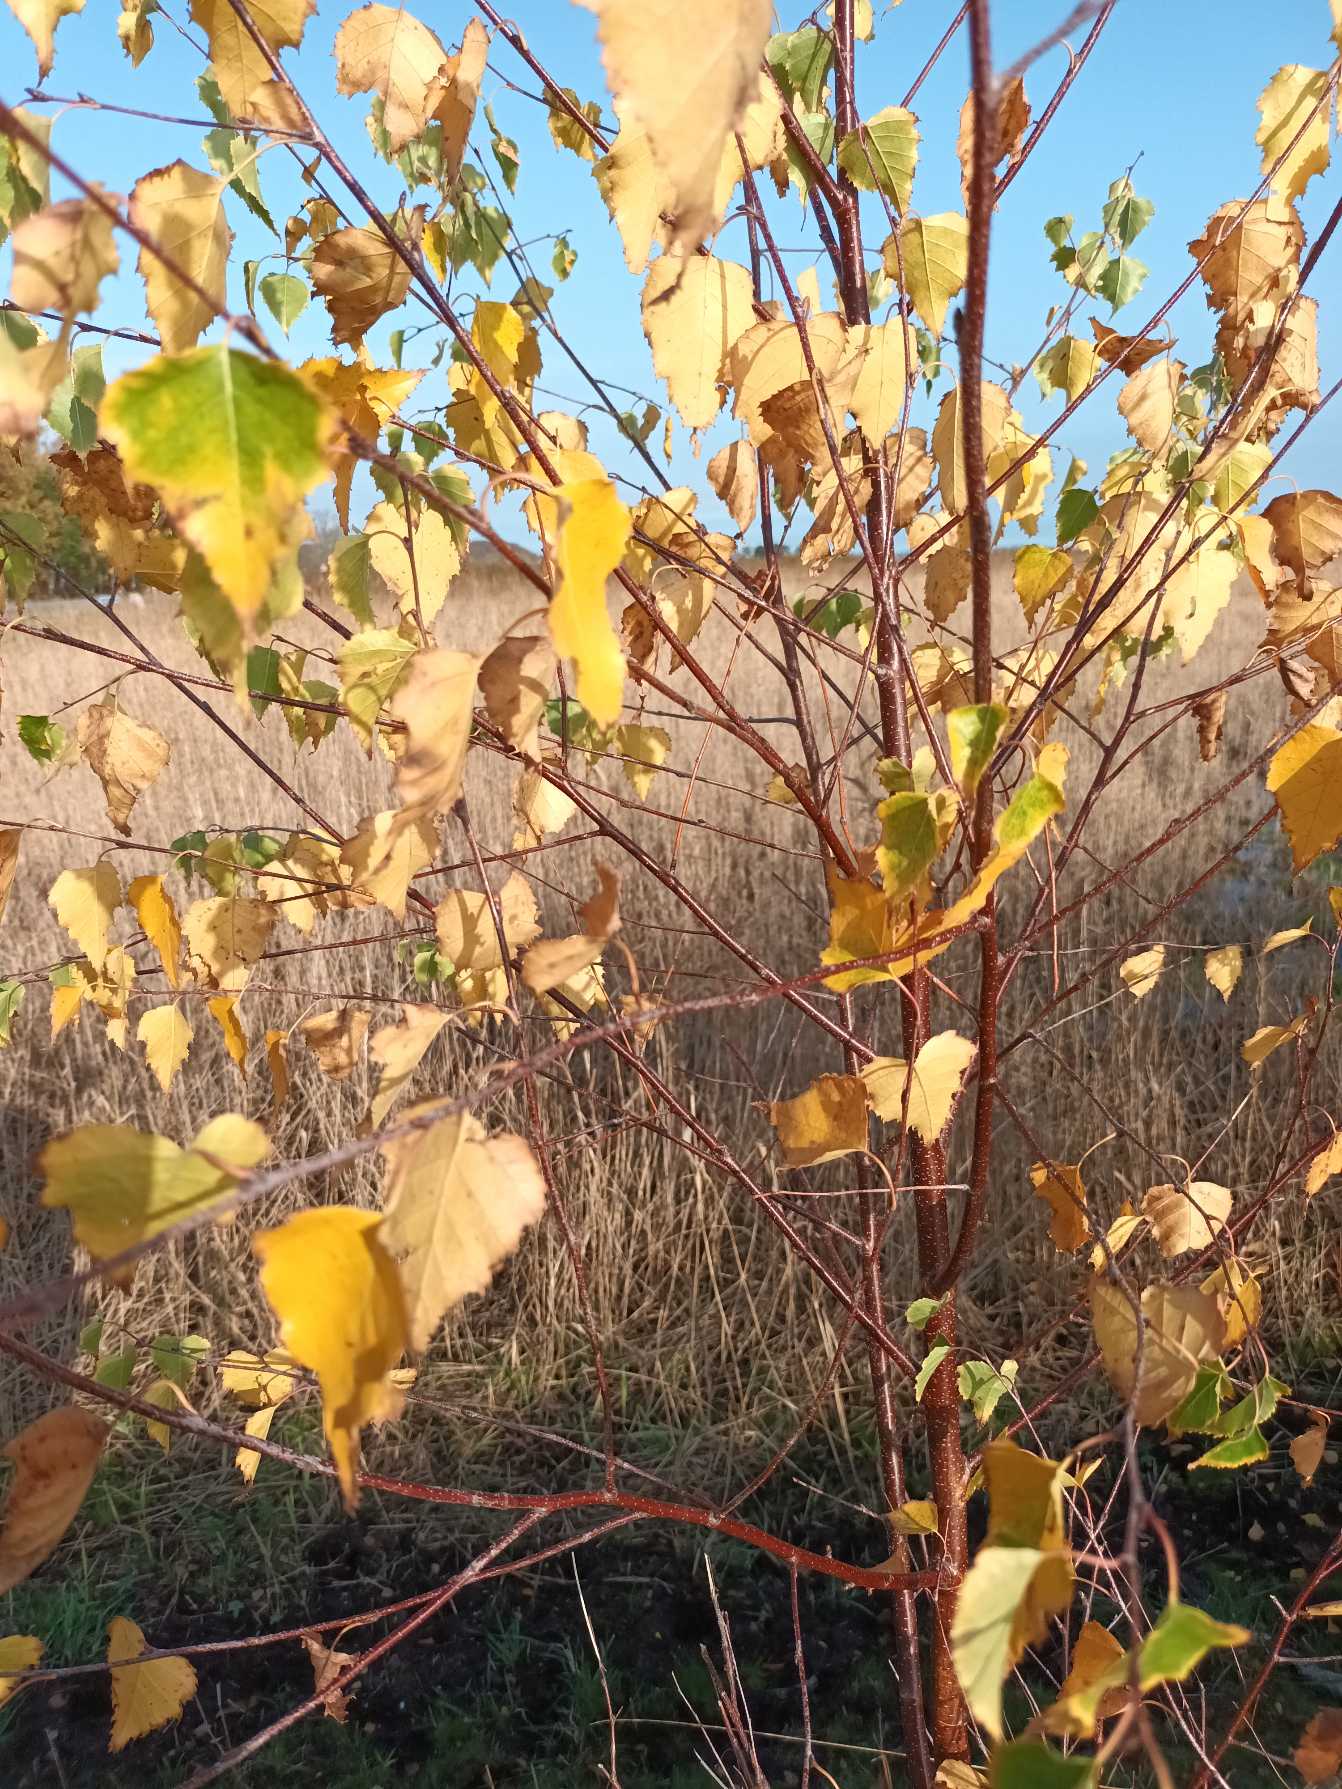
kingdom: Plantae
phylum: Tracheophyta
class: Magnoliopsida
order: Fagales
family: Betulaceae
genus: Betula
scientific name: Betula pendula
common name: Vorte-birk
